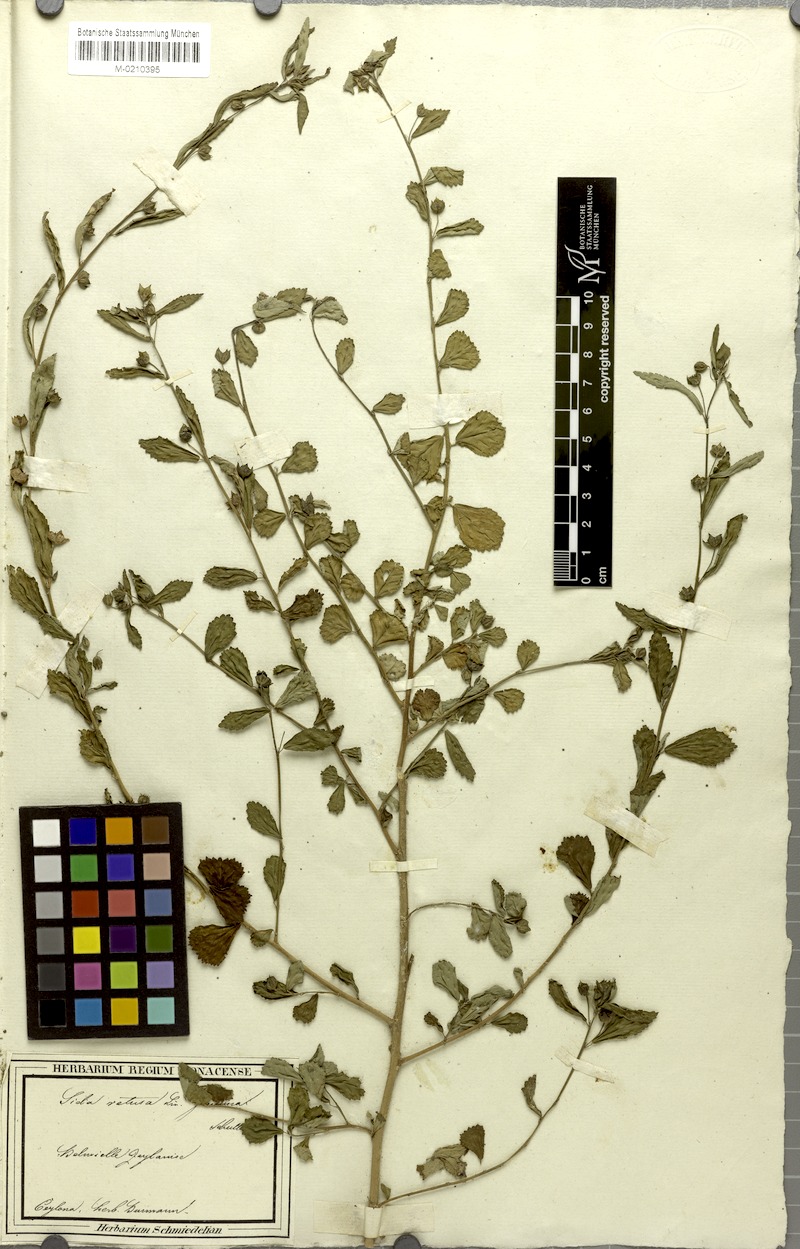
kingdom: Plantae
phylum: Tracheophyta
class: Magnoliopsida
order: Malvales
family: Malvaceae
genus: Sida
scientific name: Sida alnifolia
